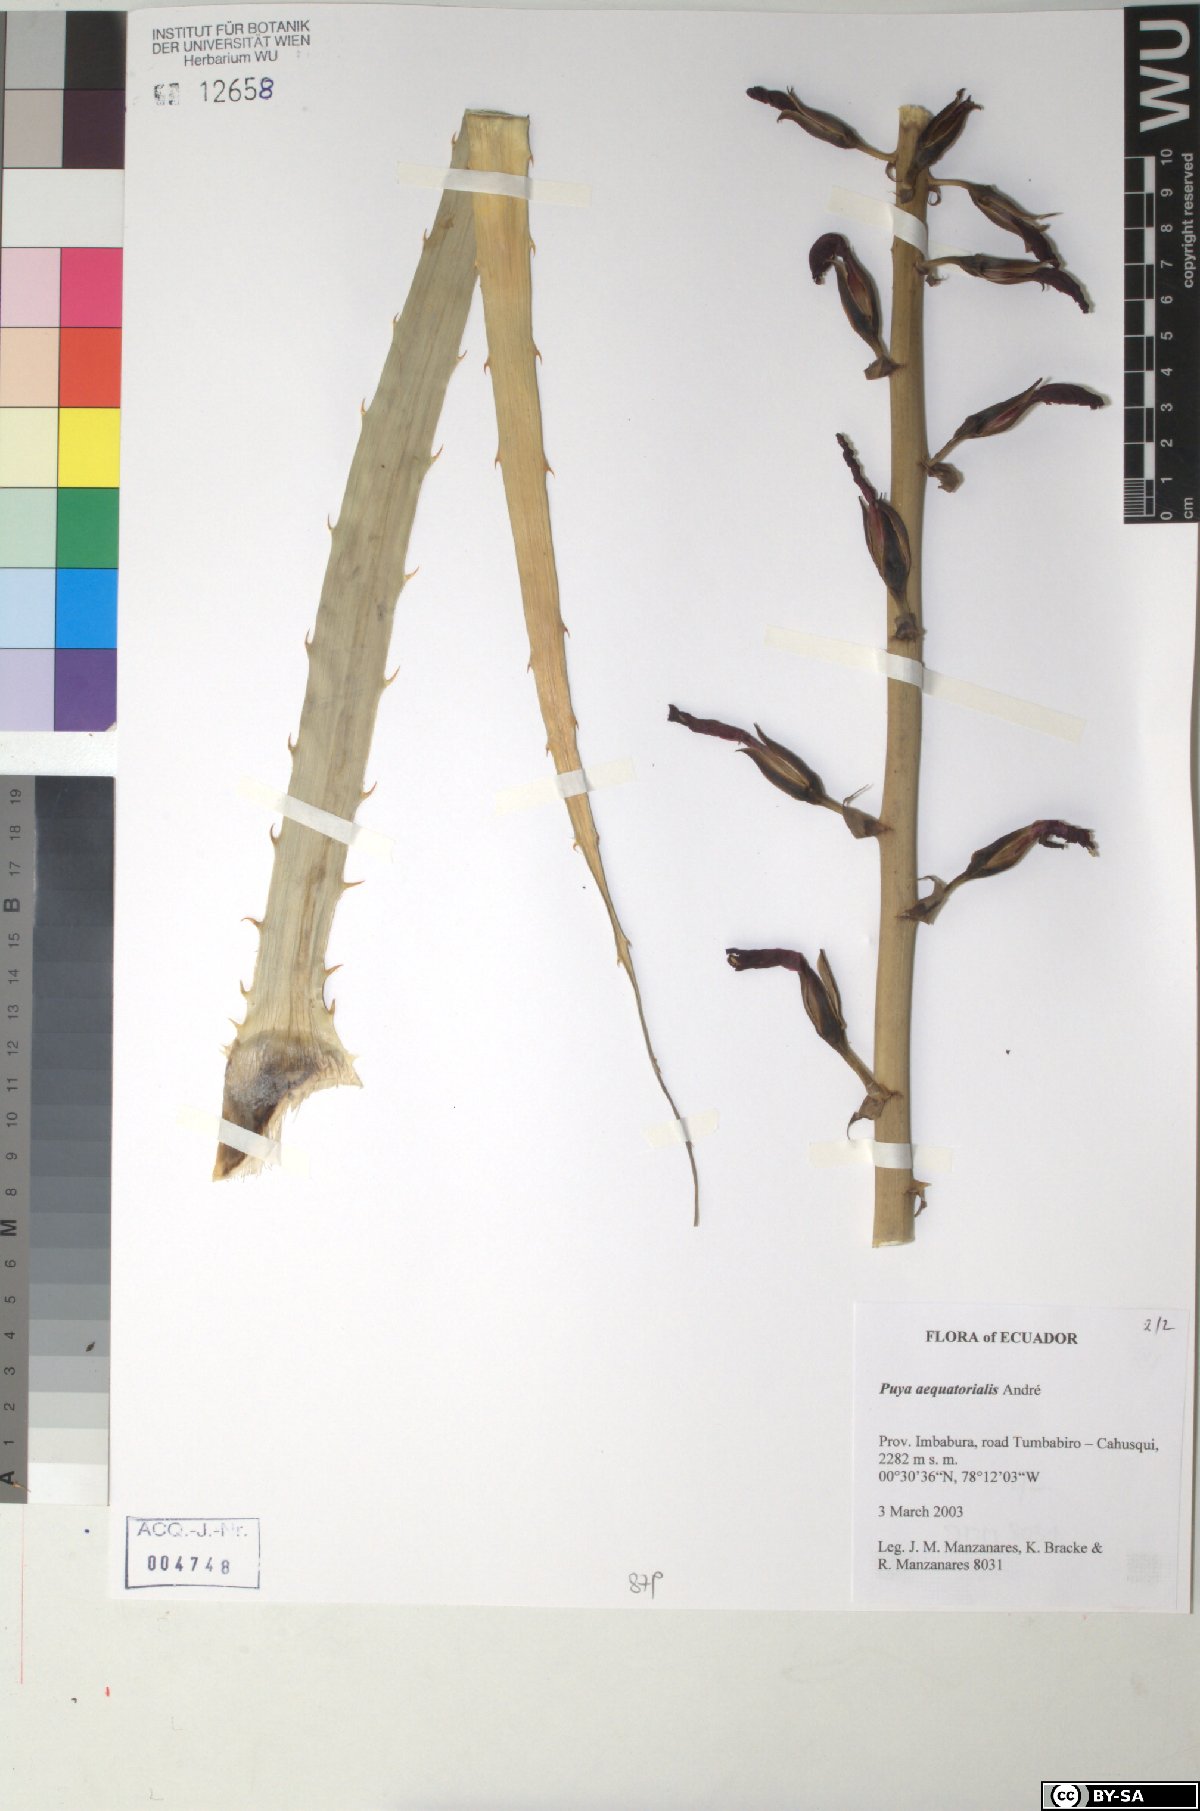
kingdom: Plantae
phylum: Tracheophyta
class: Liliopsida
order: Poales
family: Bromeliaceae
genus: Puya
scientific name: Puya aequatorialis
